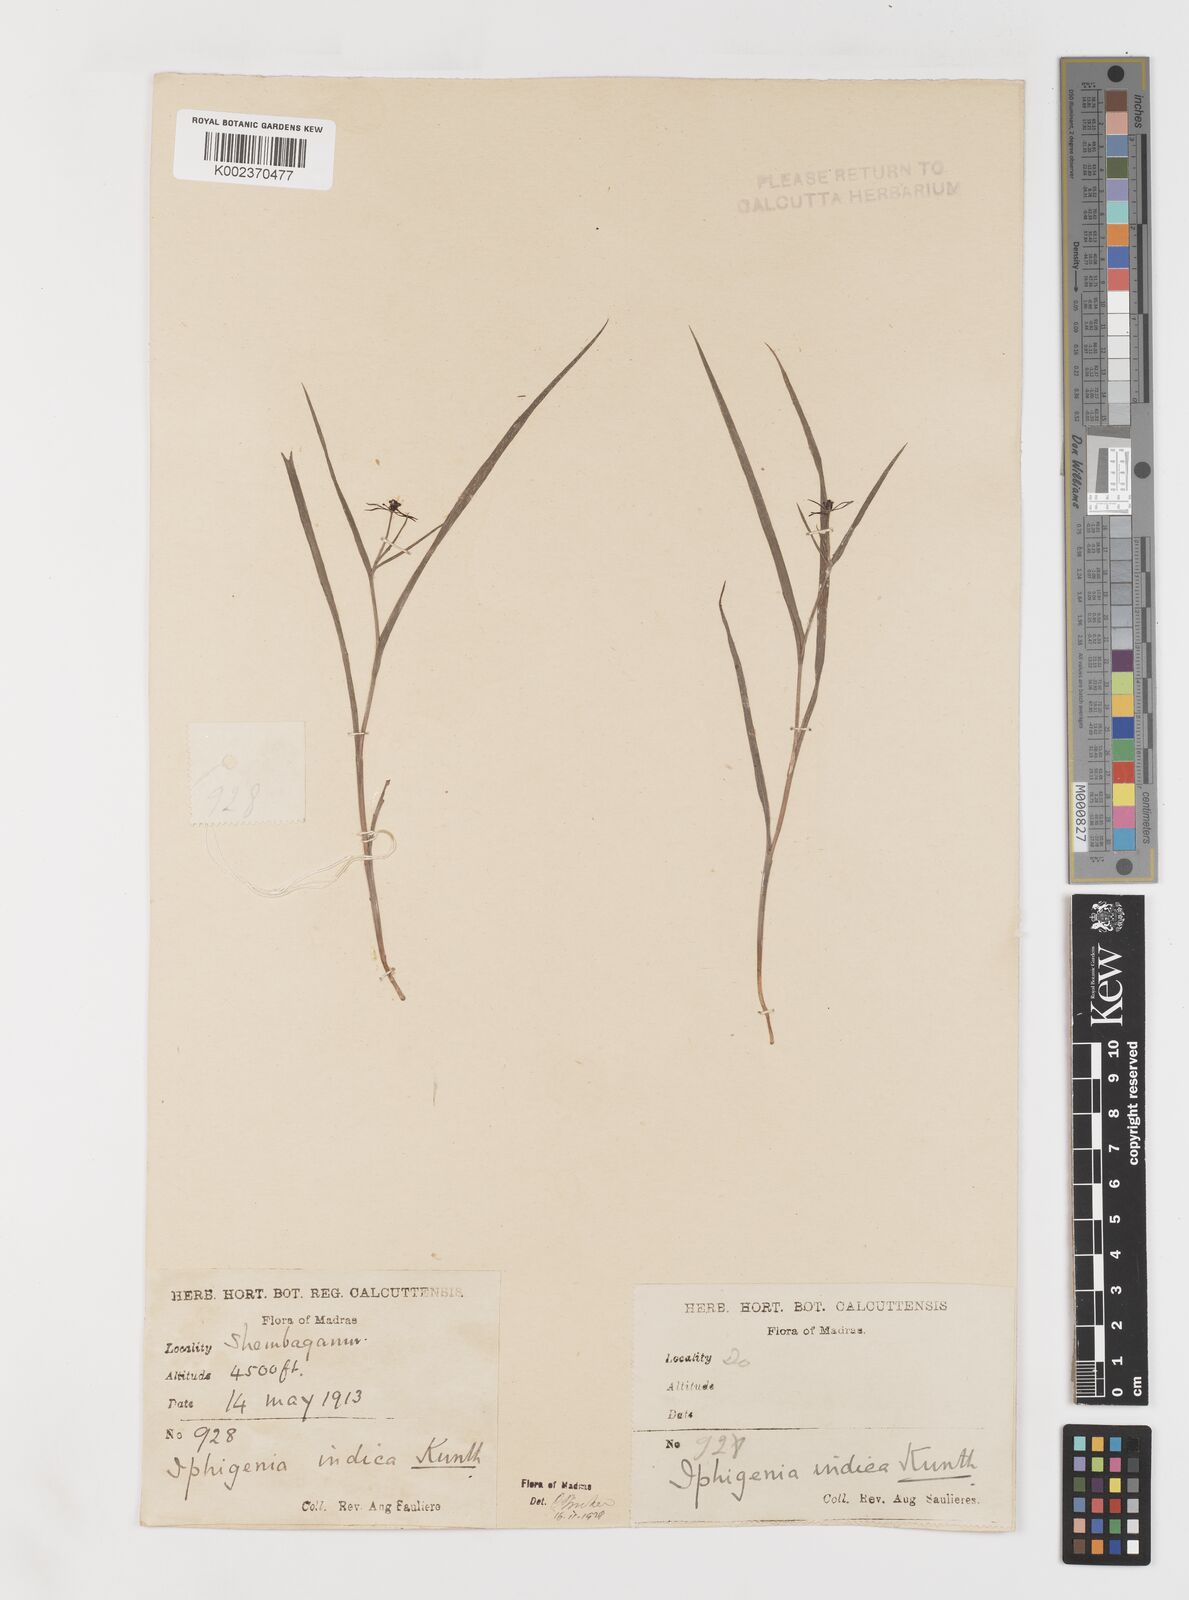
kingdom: Plantae
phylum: Tracheophyta
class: Liliopsida
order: Liliales
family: Colchicaceae
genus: Iphigenia
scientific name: Iphigenia indica
